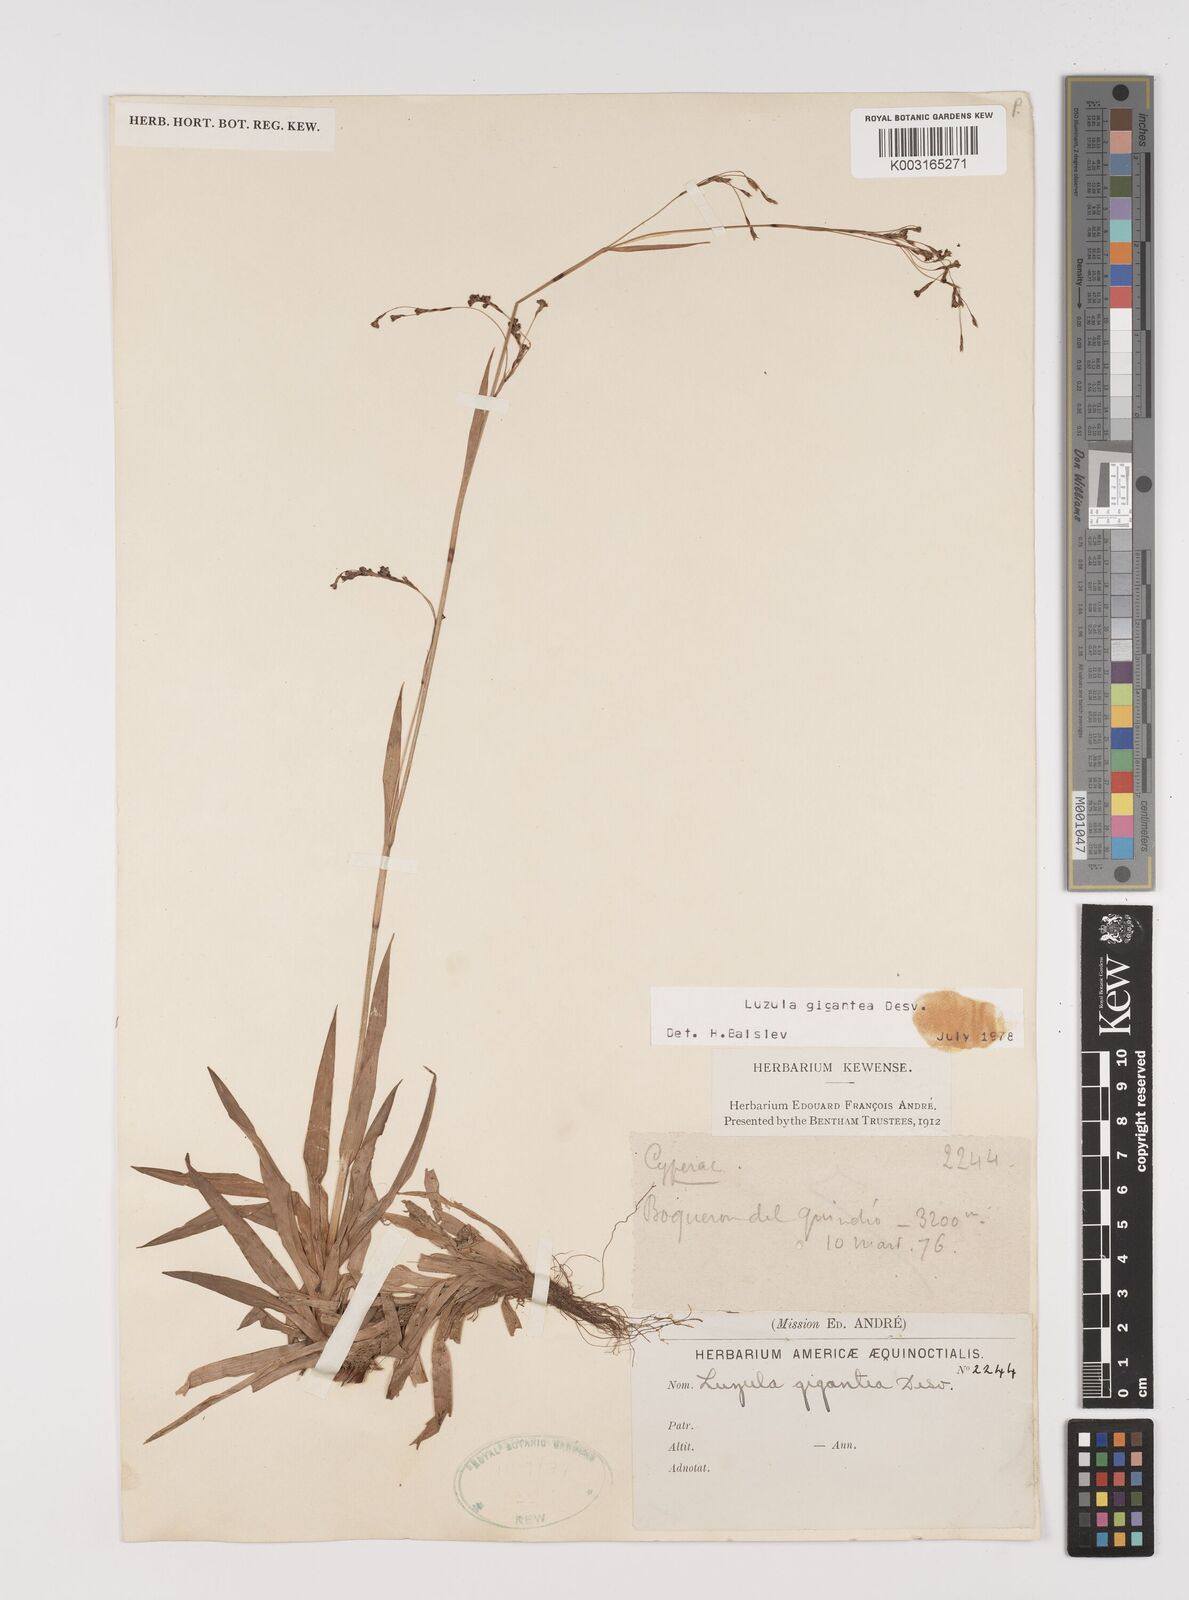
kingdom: Plantae
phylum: Tracheophyta
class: Liliopsida
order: Poales
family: Juncaceae
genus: Luzula
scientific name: Luzula gigantea
